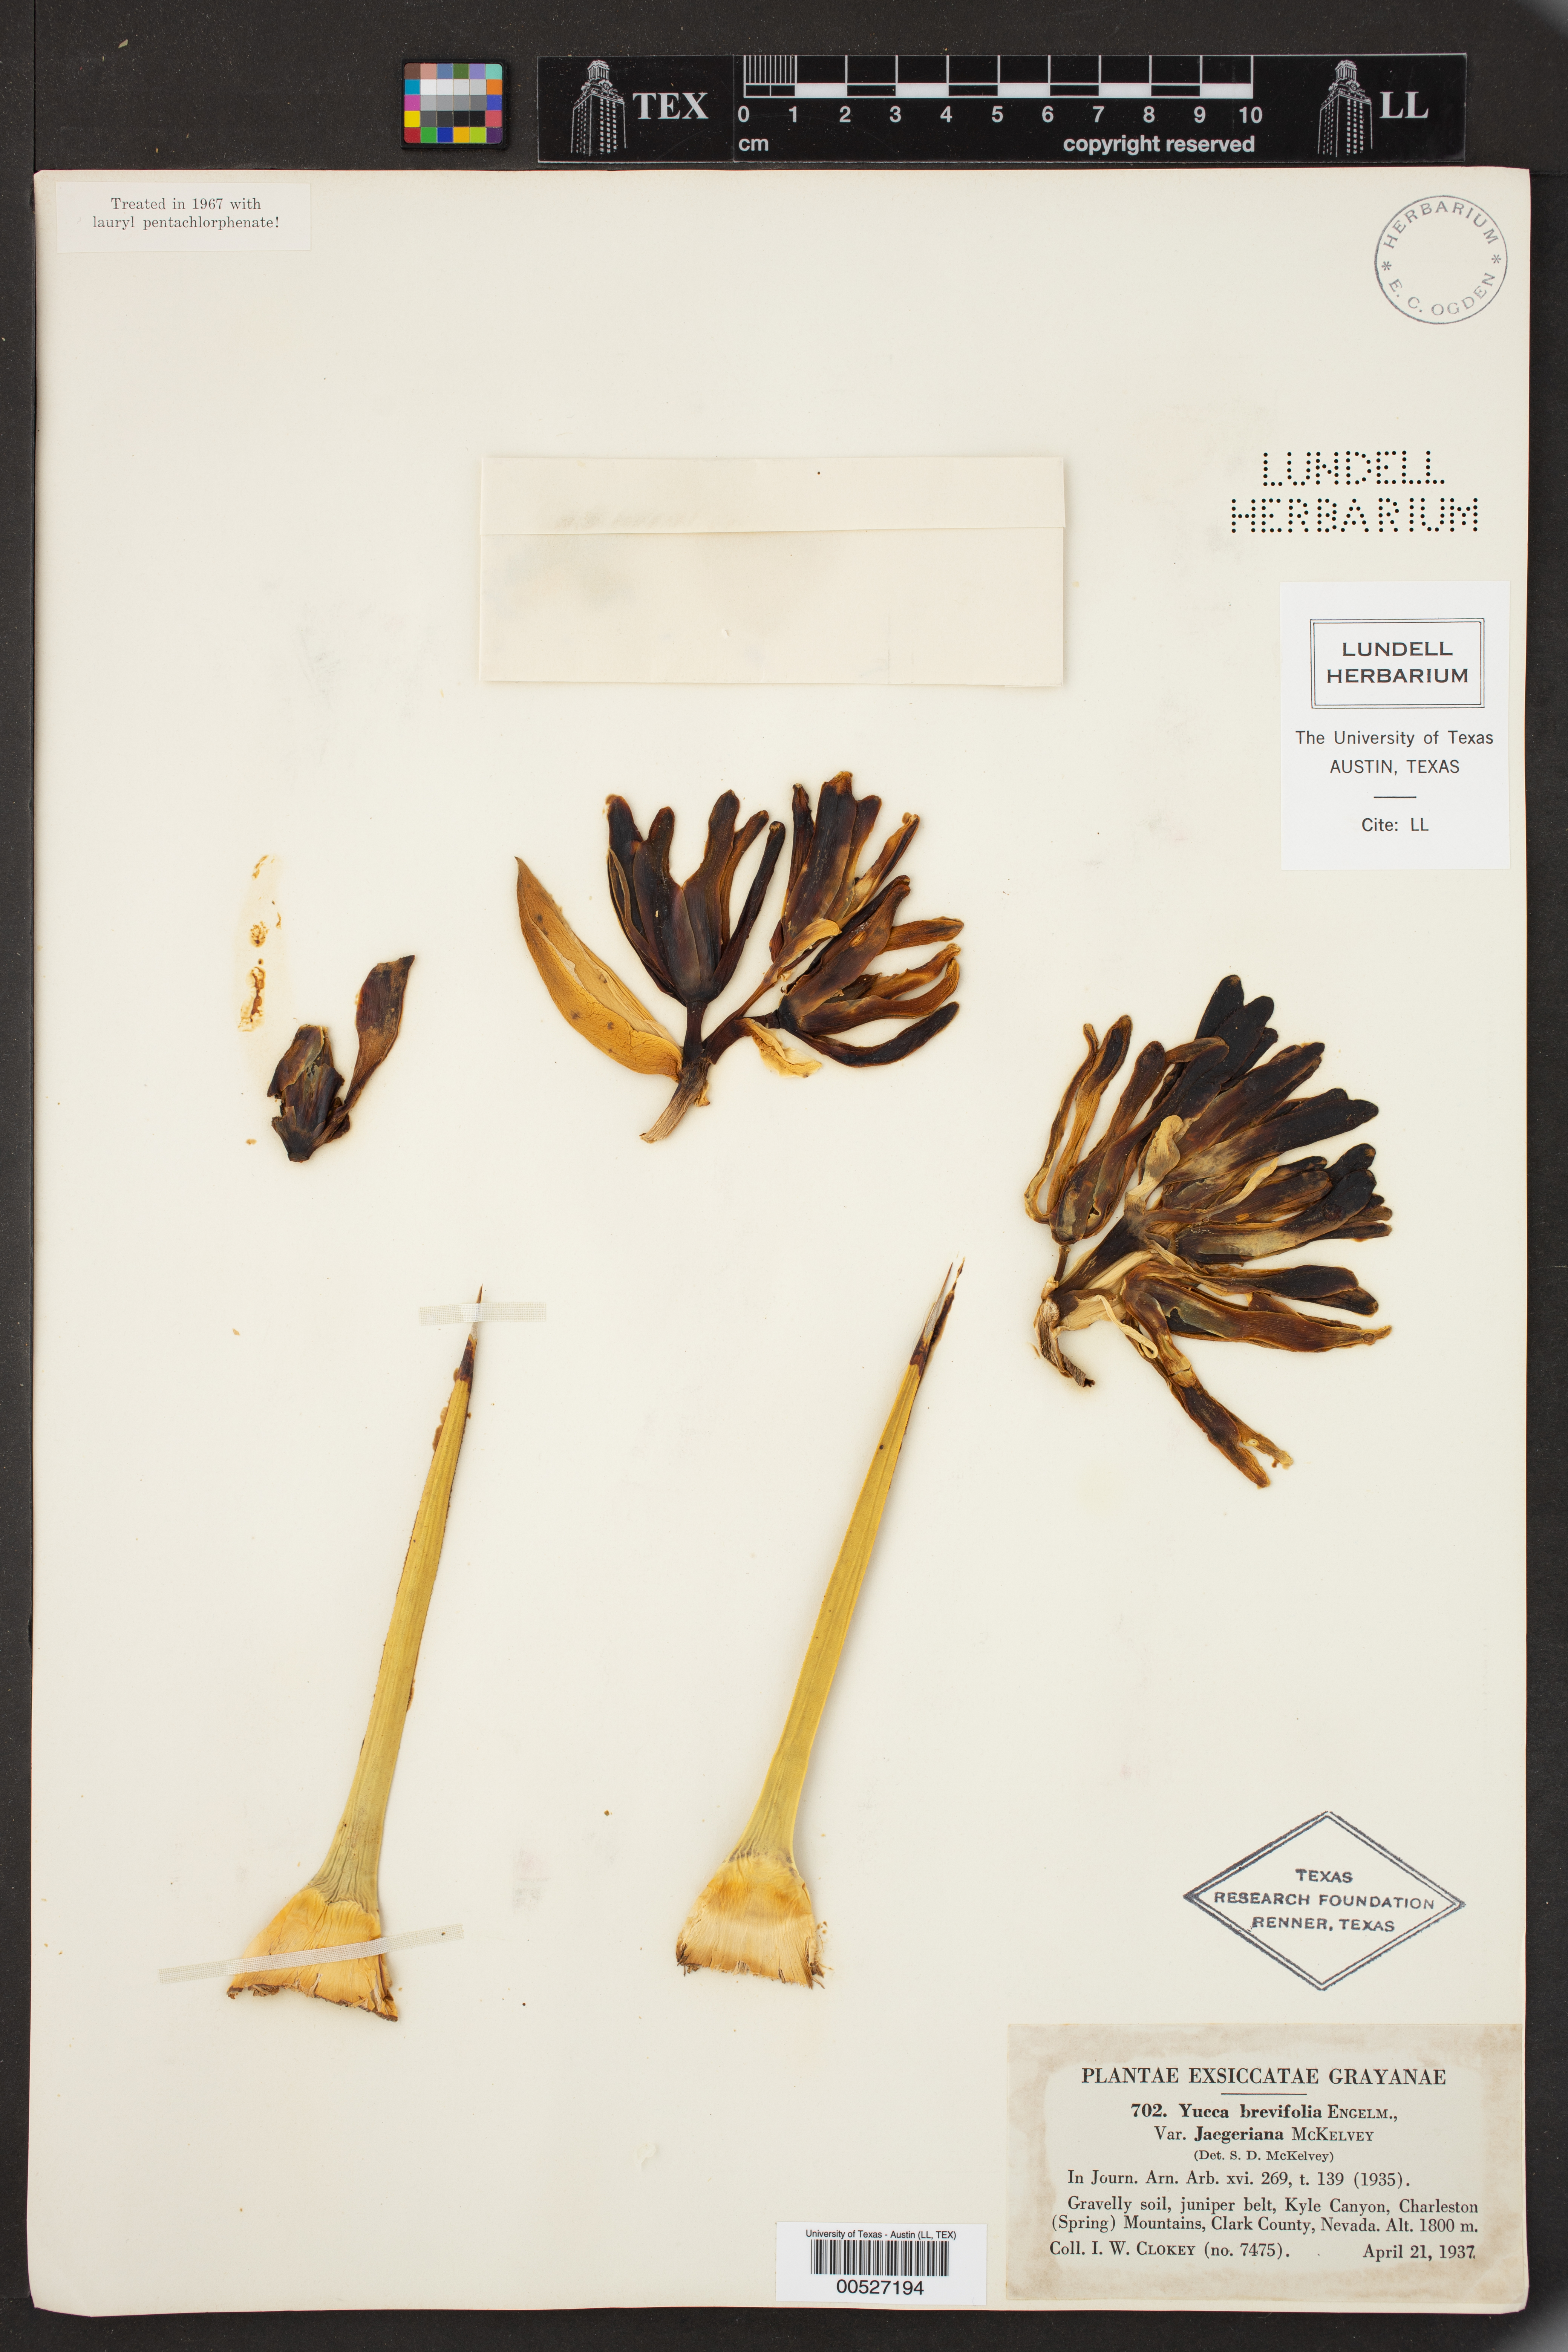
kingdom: Plantae
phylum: Tracheophyta
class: Liliopsida
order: Asparagales
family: Asparagaceae
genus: Yucca
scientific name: Yucca brevifolia
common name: Joshua tree
